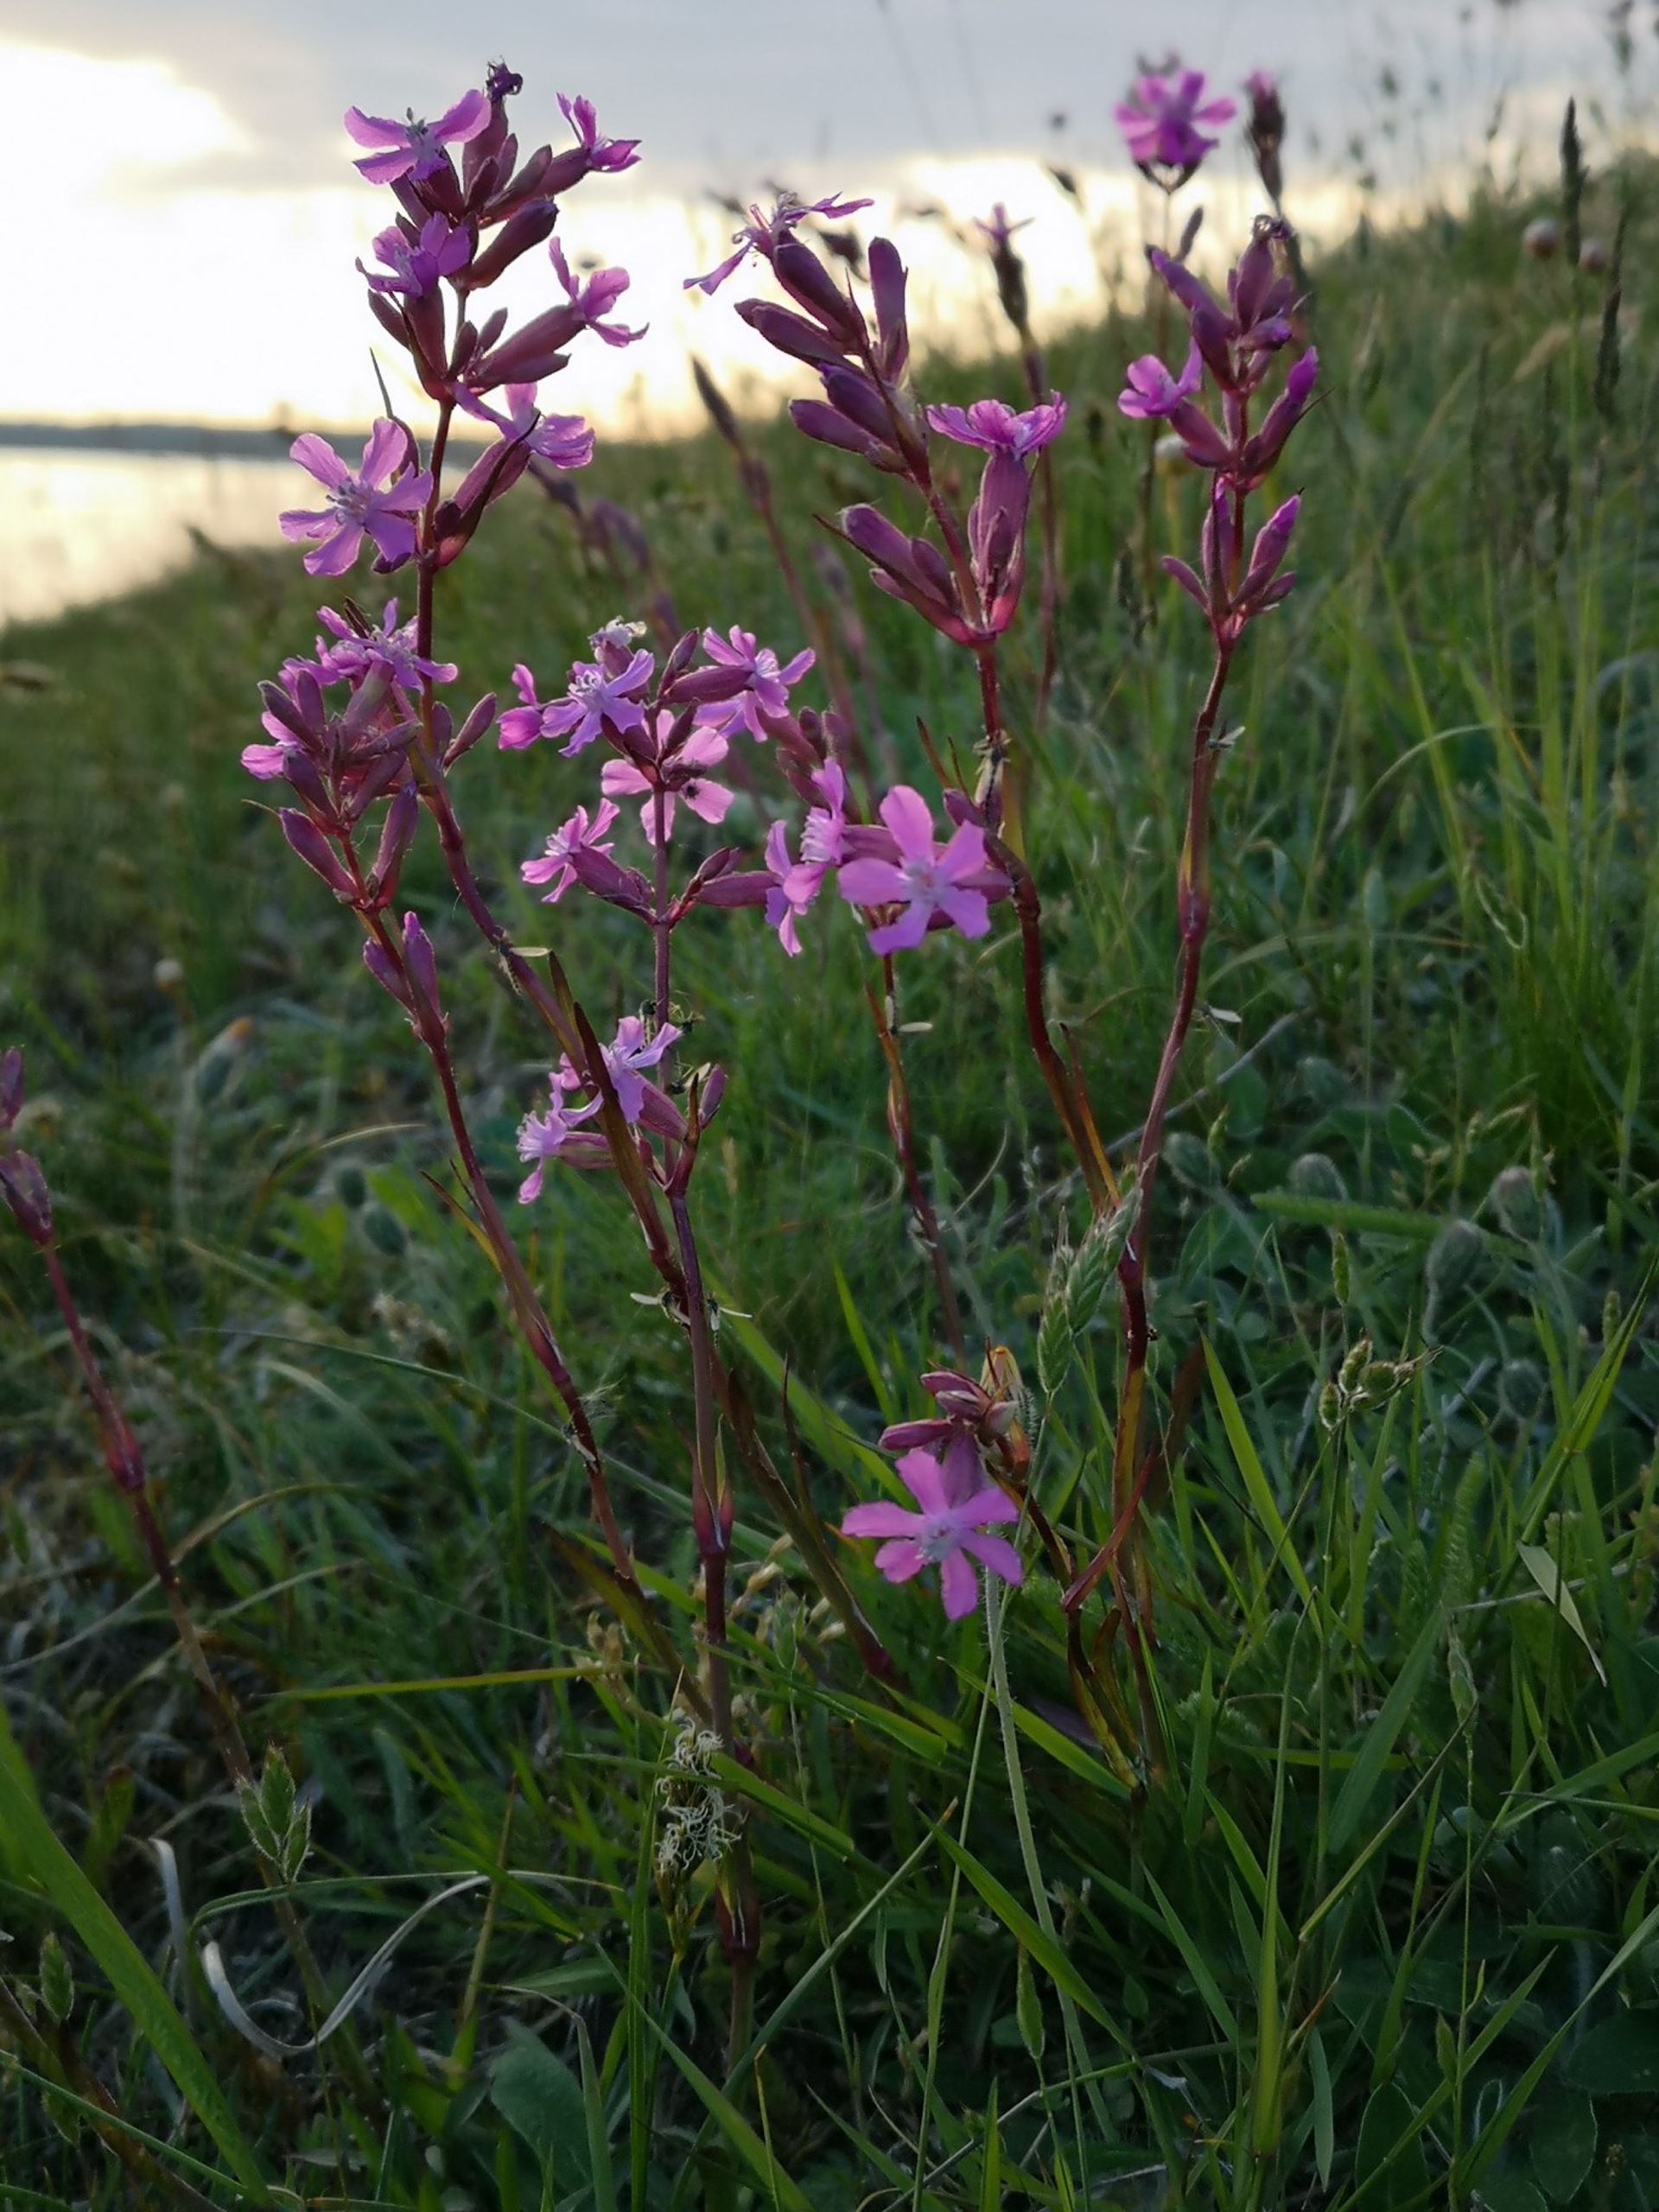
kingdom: Plantae
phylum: Tracheophyta
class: Magnoliopsida
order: Caryophyllales
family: Caryophyllaceae
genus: Viscaria
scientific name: Viscaria vulgaris
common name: Tjærenellike
